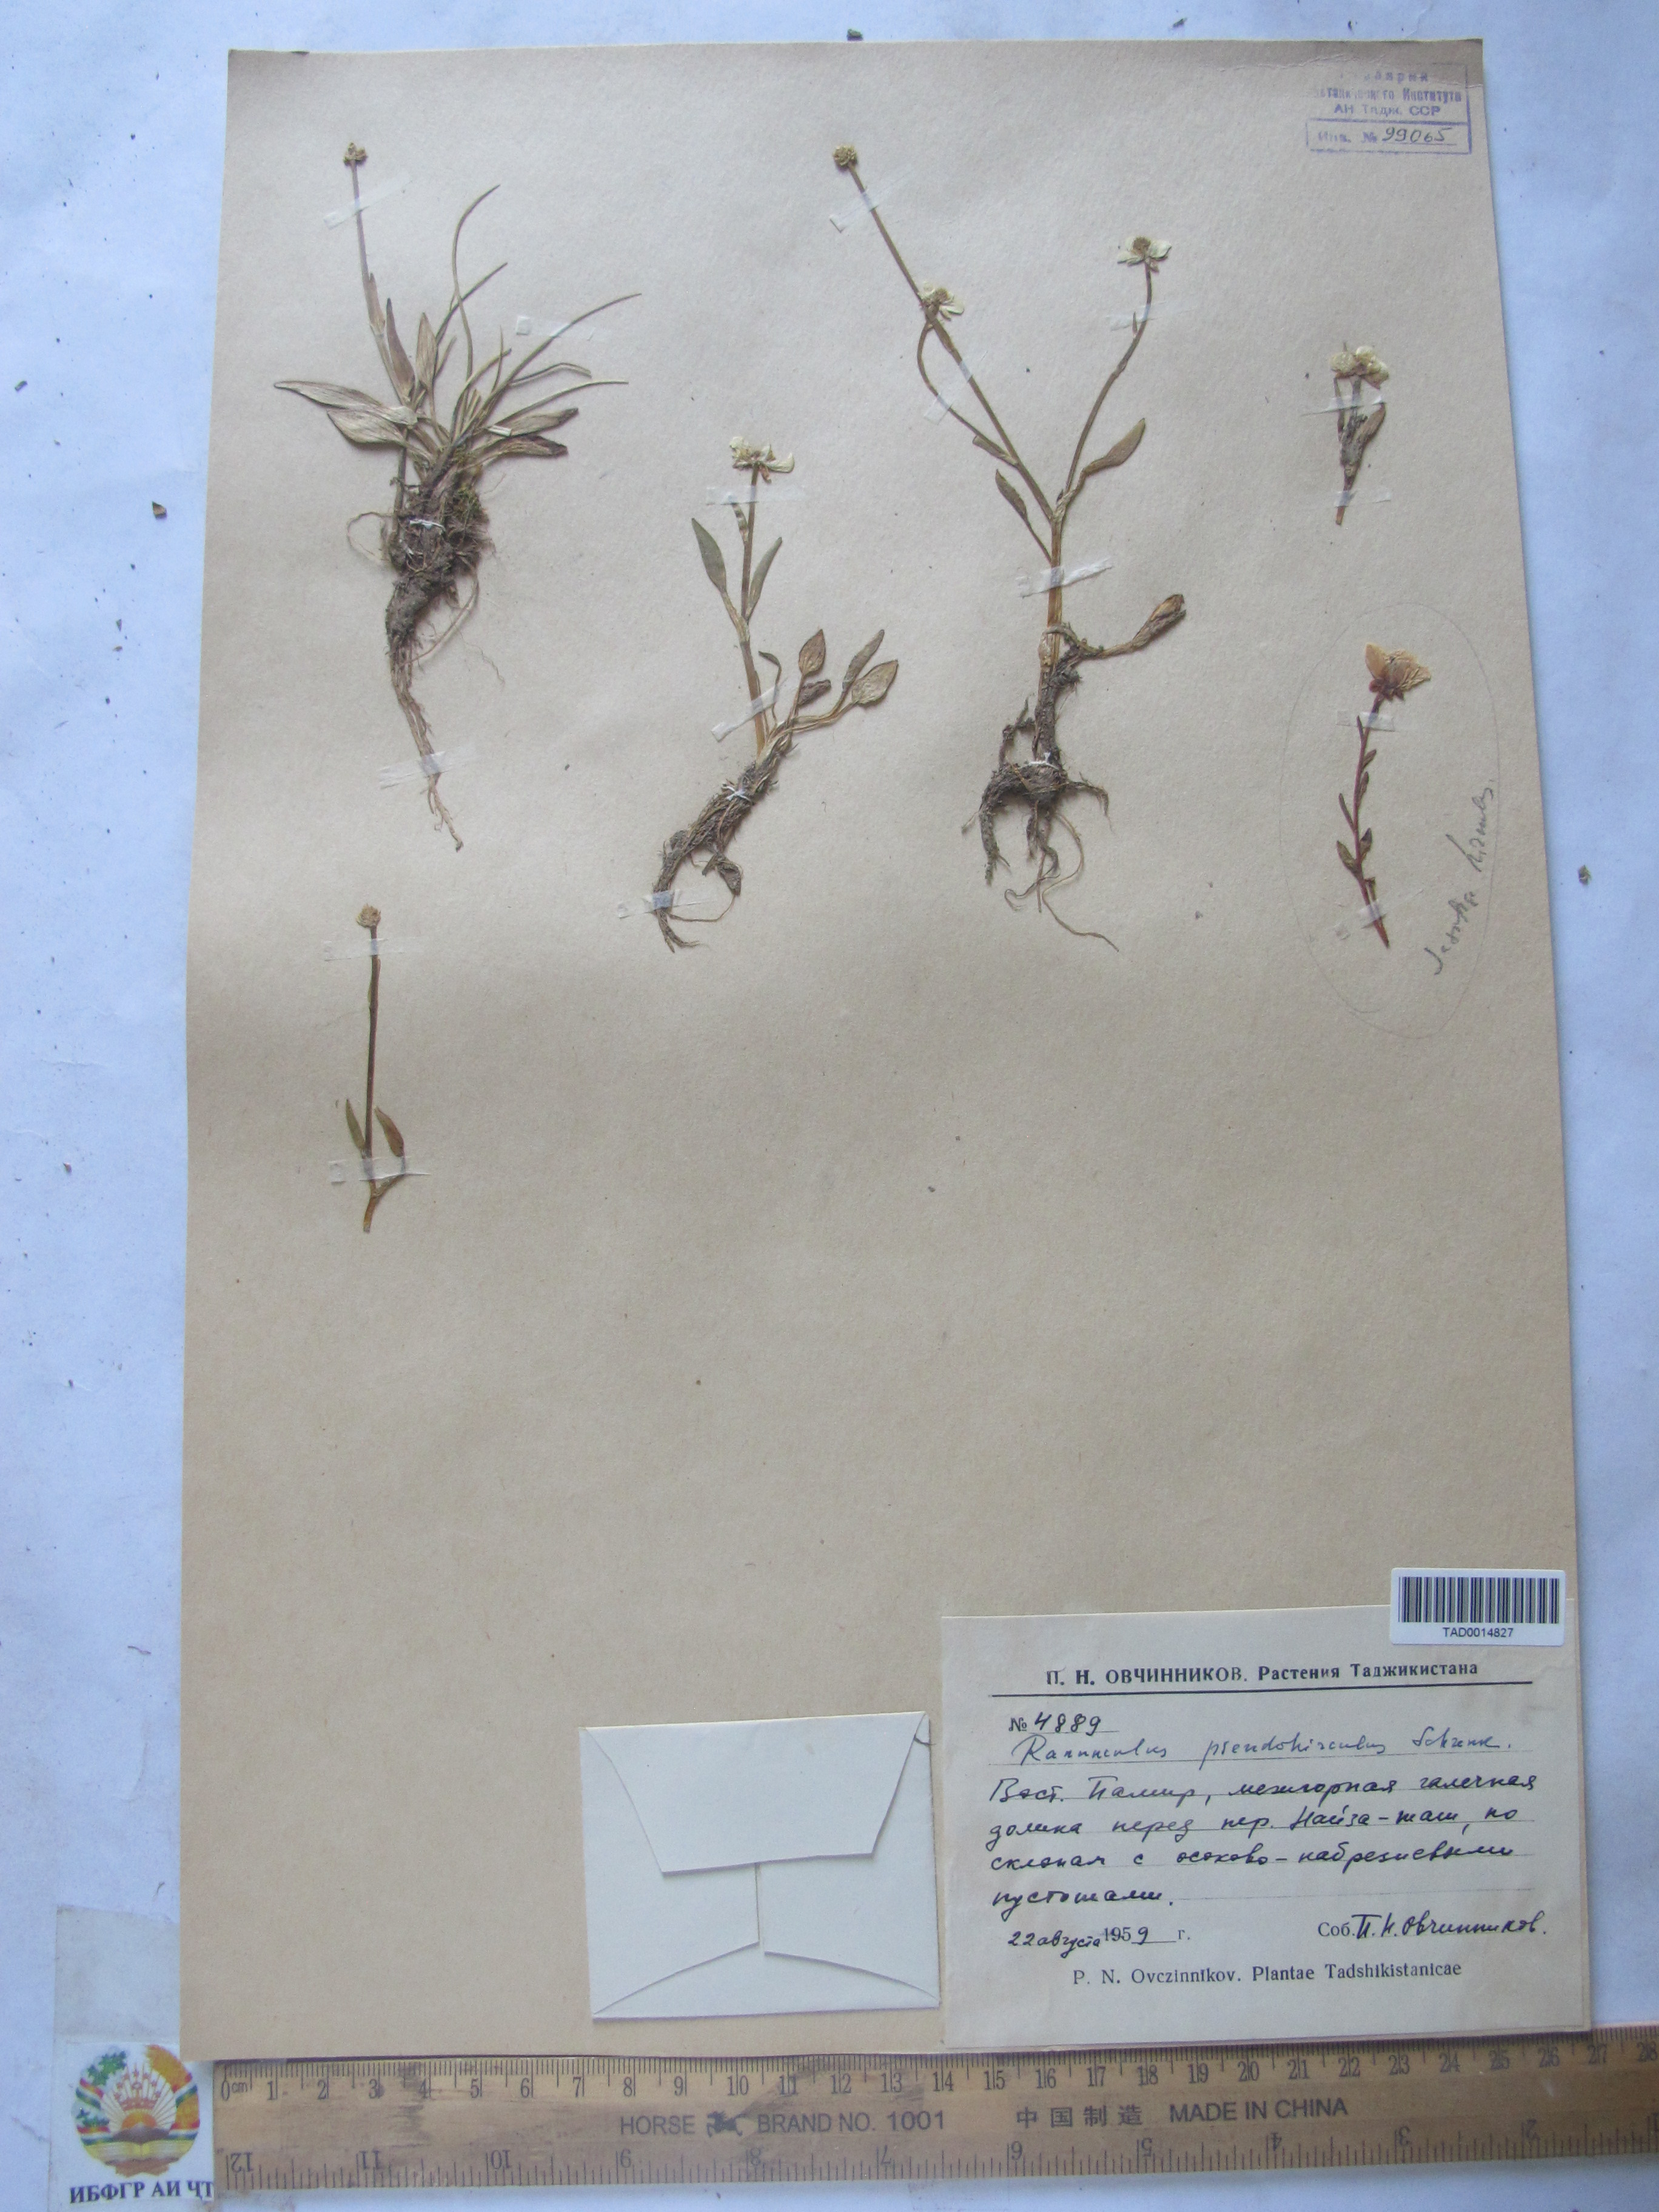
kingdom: Plantae
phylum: Tracheophyta
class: Magnoliopsida
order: Ranunculales
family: Ranunculaceae
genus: Ranunculus
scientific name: Ranunculus pseudohirculus
